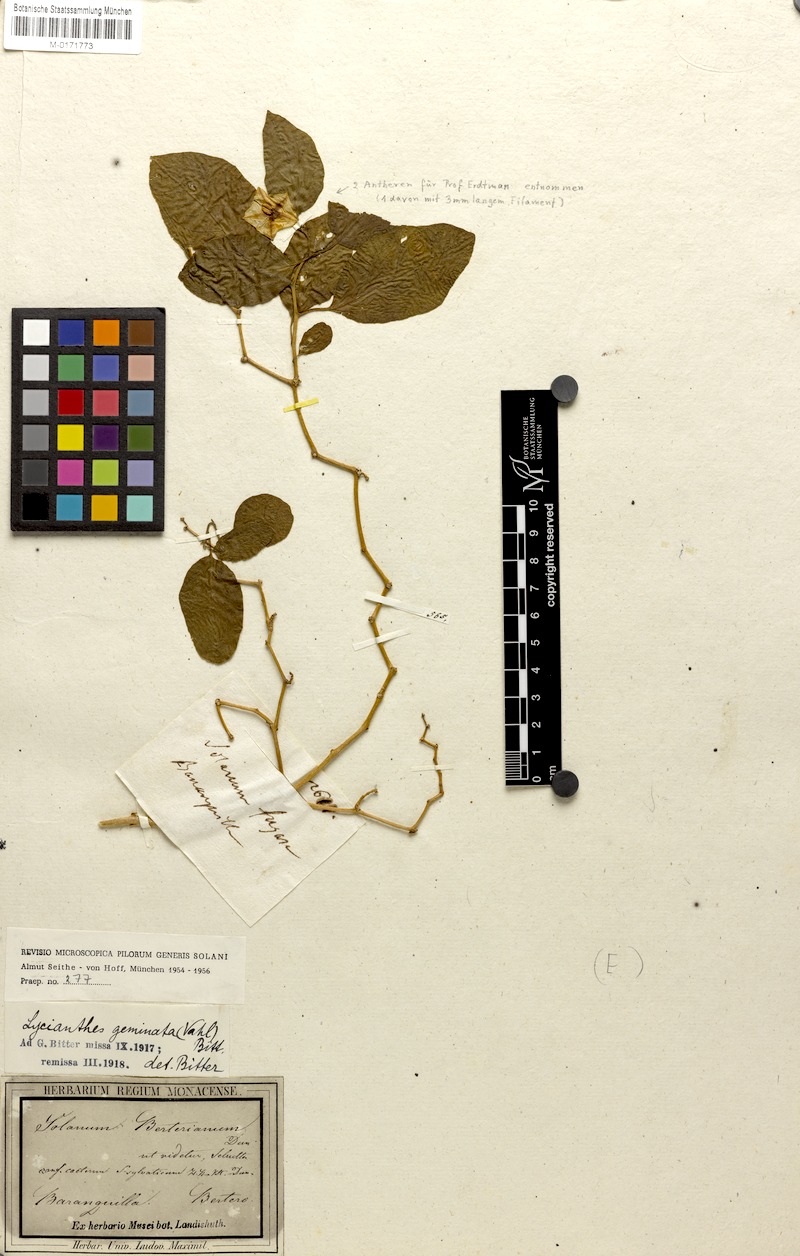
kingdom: Plantae
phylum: Tracheophyta
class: Magnoliopsida
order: Solanales
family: Solanaceae
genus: Lycianthes
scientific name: Lycianthes pauciflora
